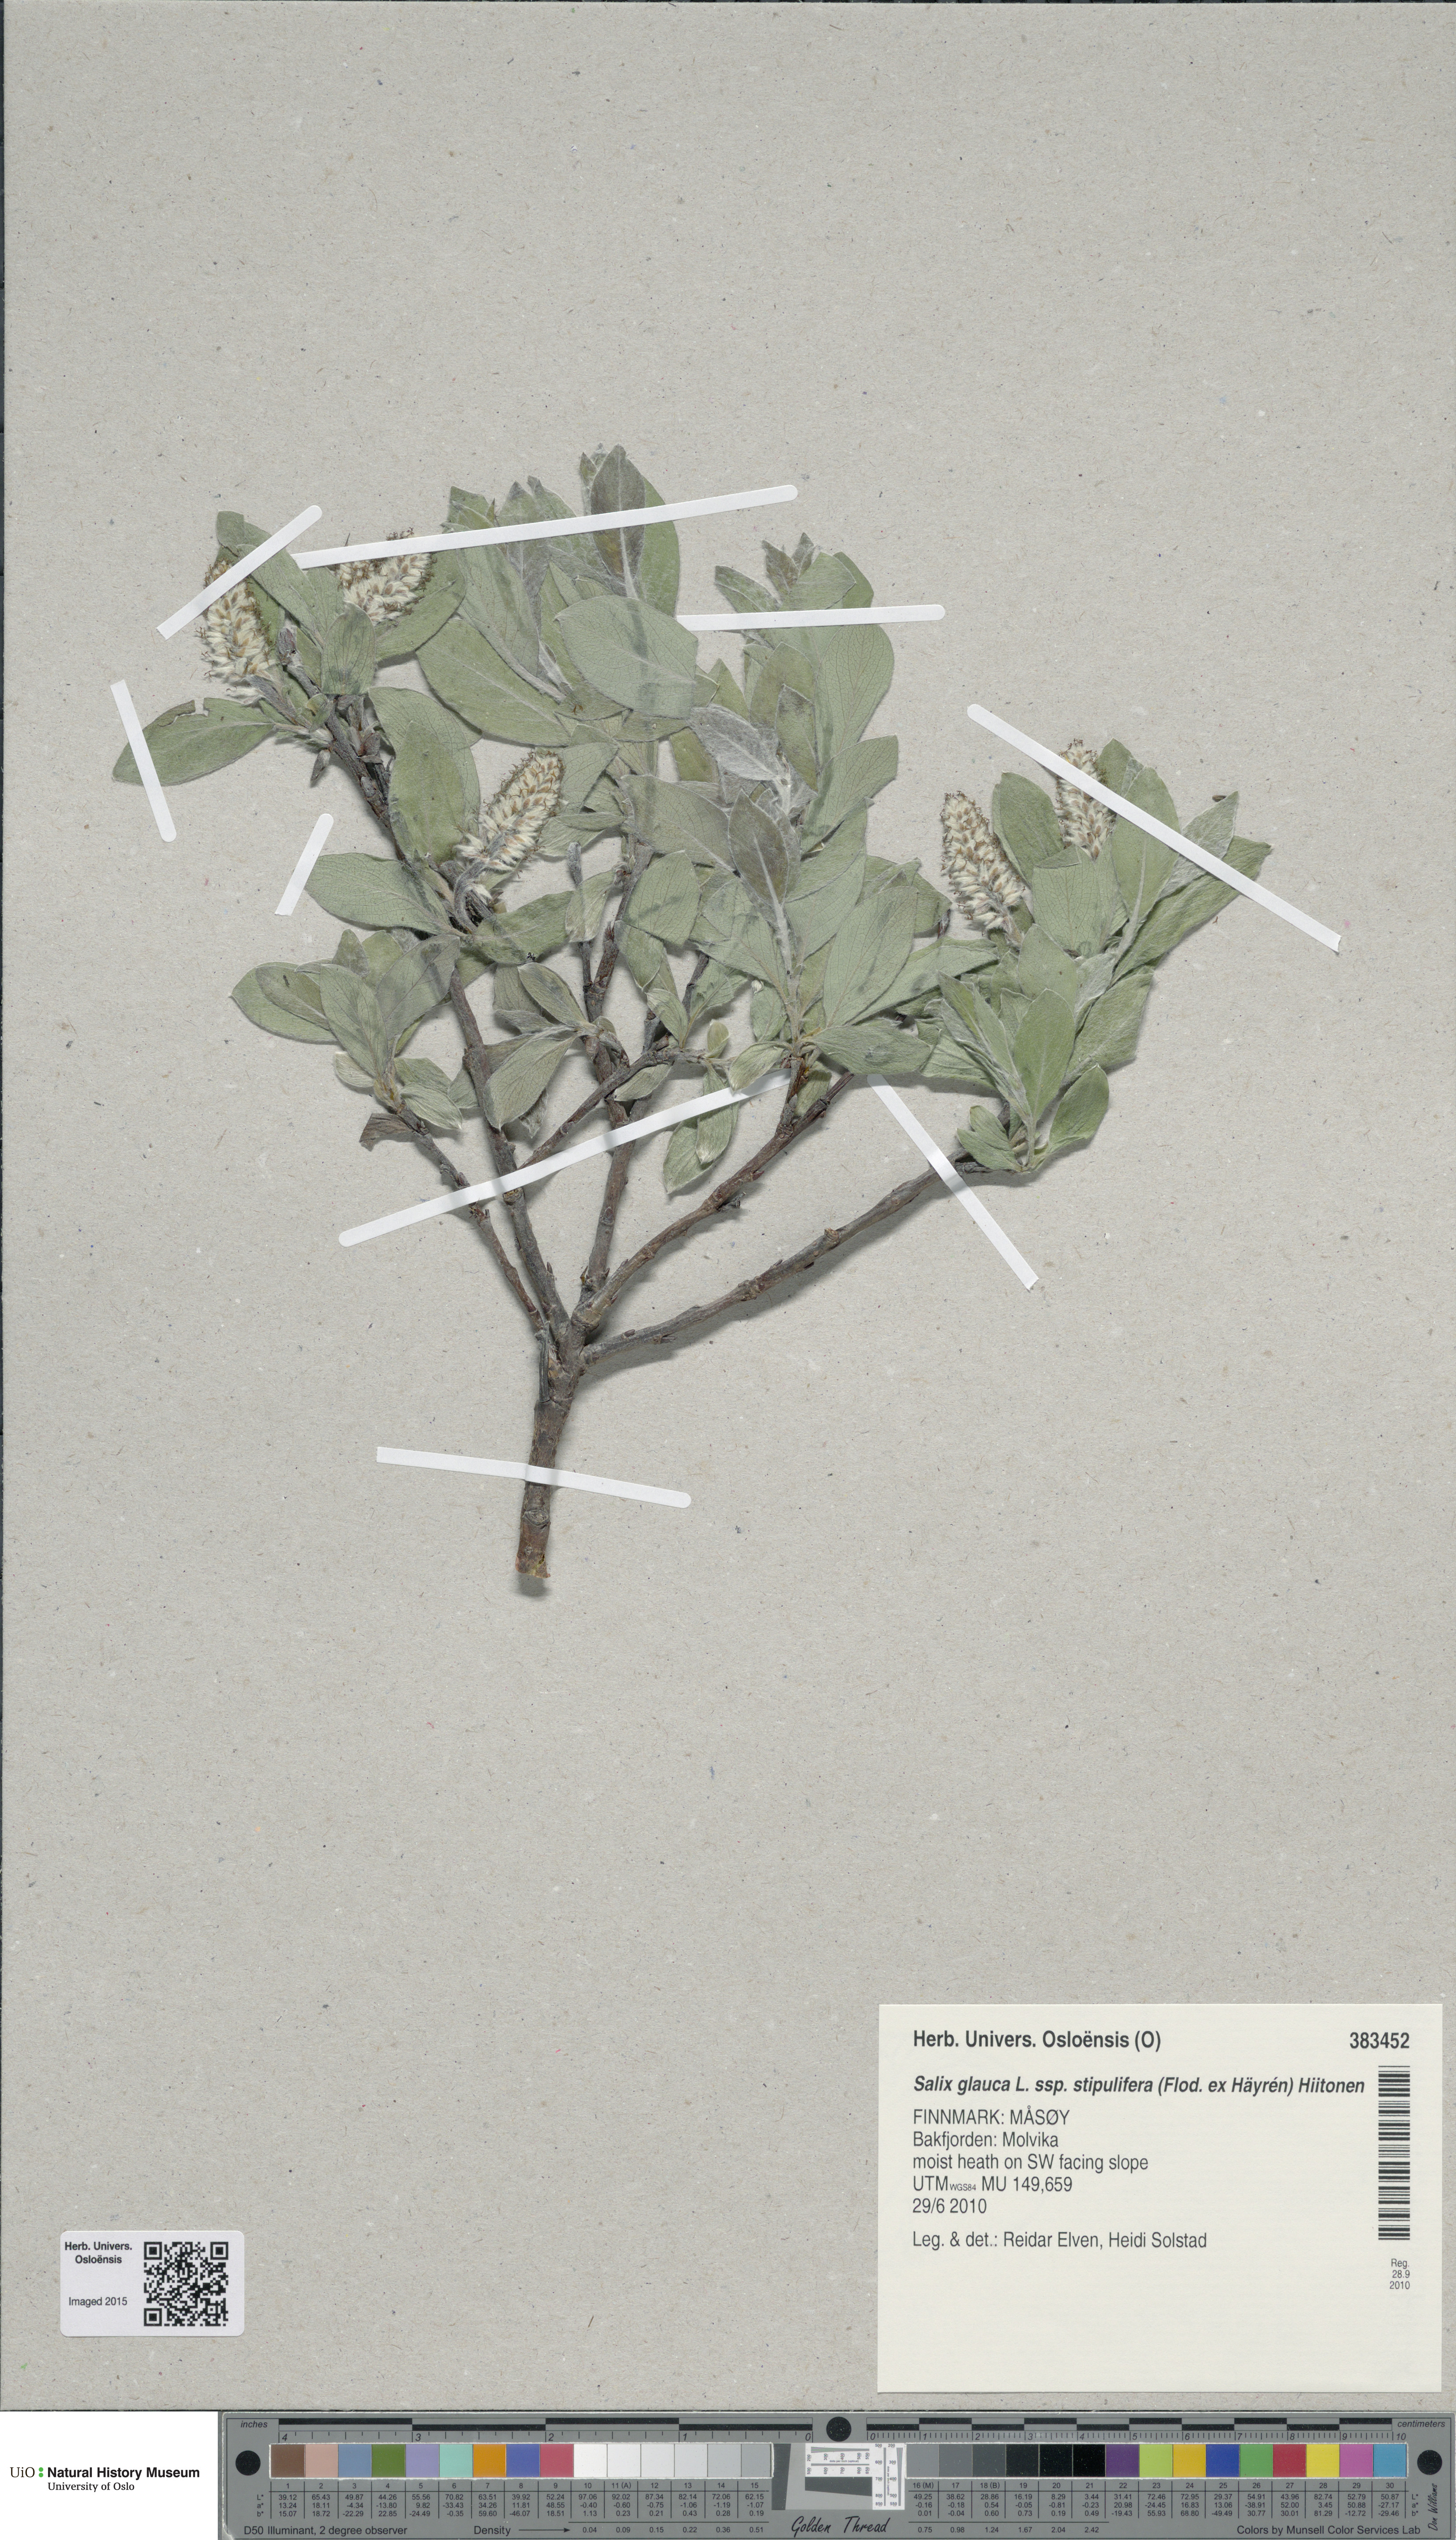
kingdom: Plantae
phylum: Tracheophyta
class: Magnoliopsida
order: Malpighiales
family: Salicaceae
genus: Salix
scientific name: Salix glauca
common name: Glaucous willow
